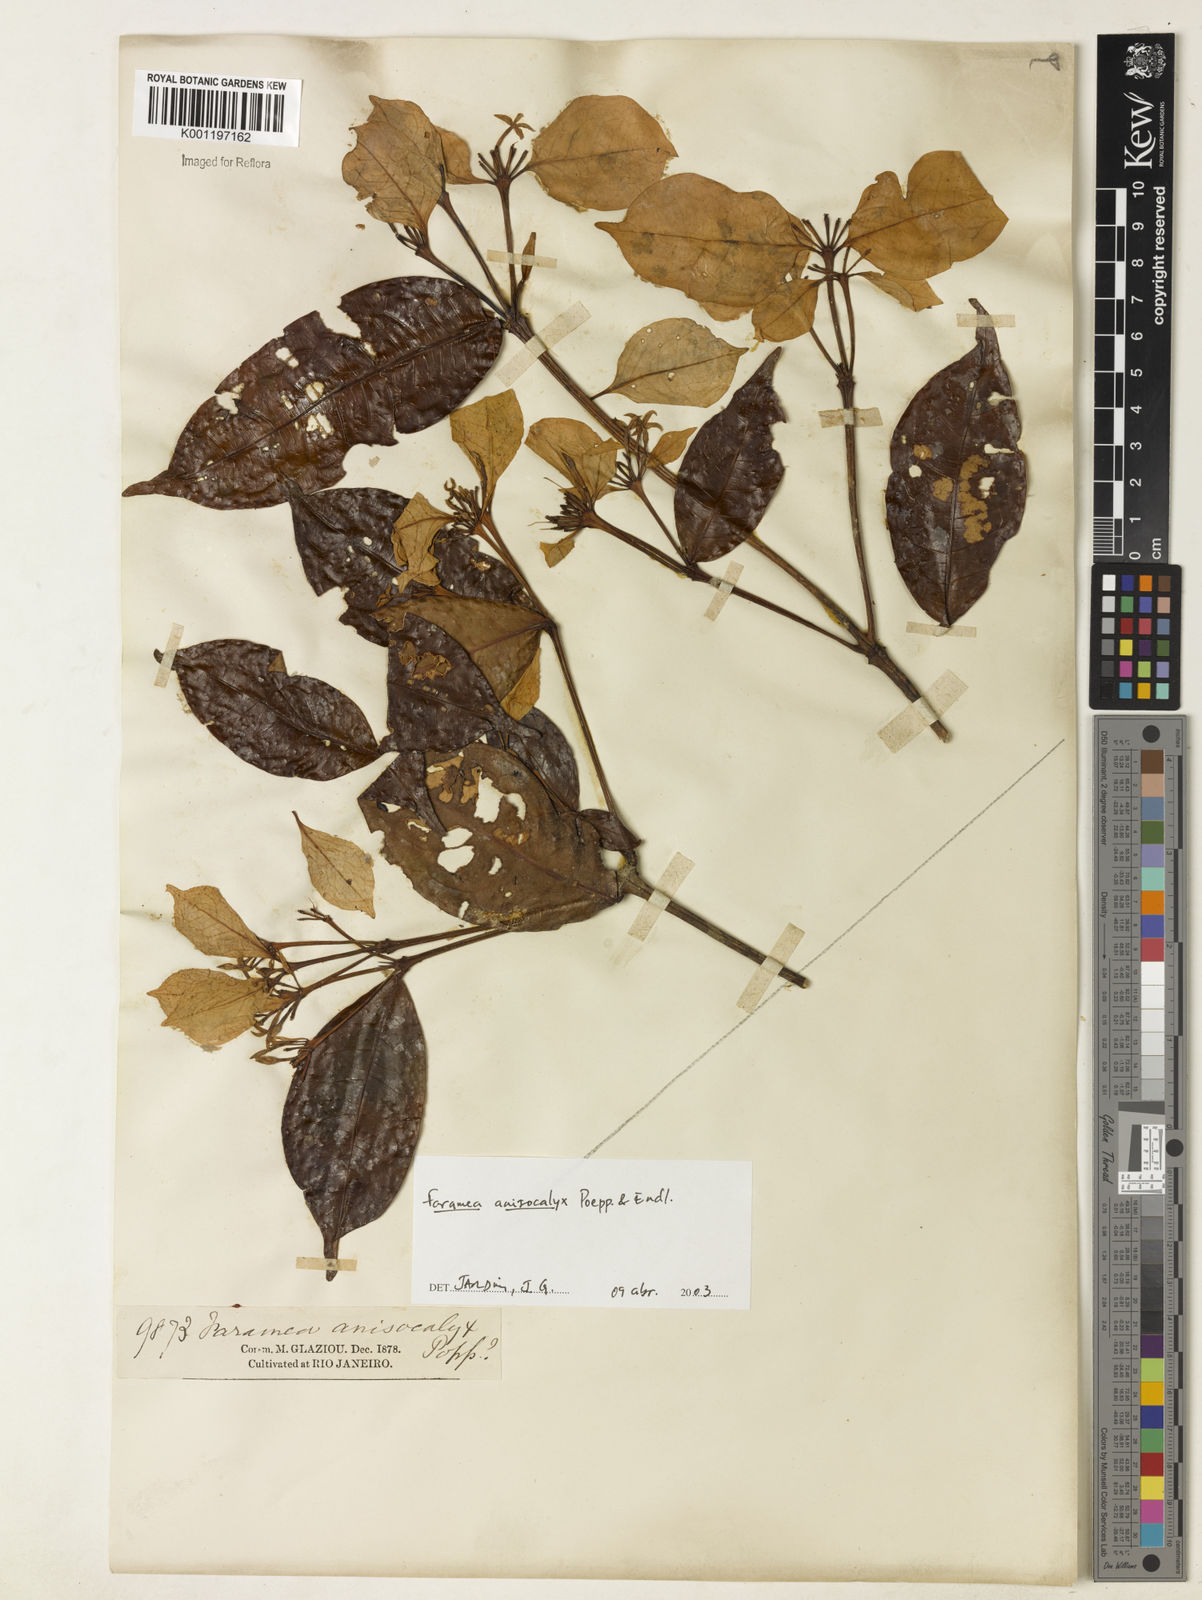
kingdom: Plantae
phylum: Tracheophyta
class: Magnoliopsida
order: Gentianales
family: Rubiaceae
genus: Faramea
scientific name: Faramea anisocalyx
